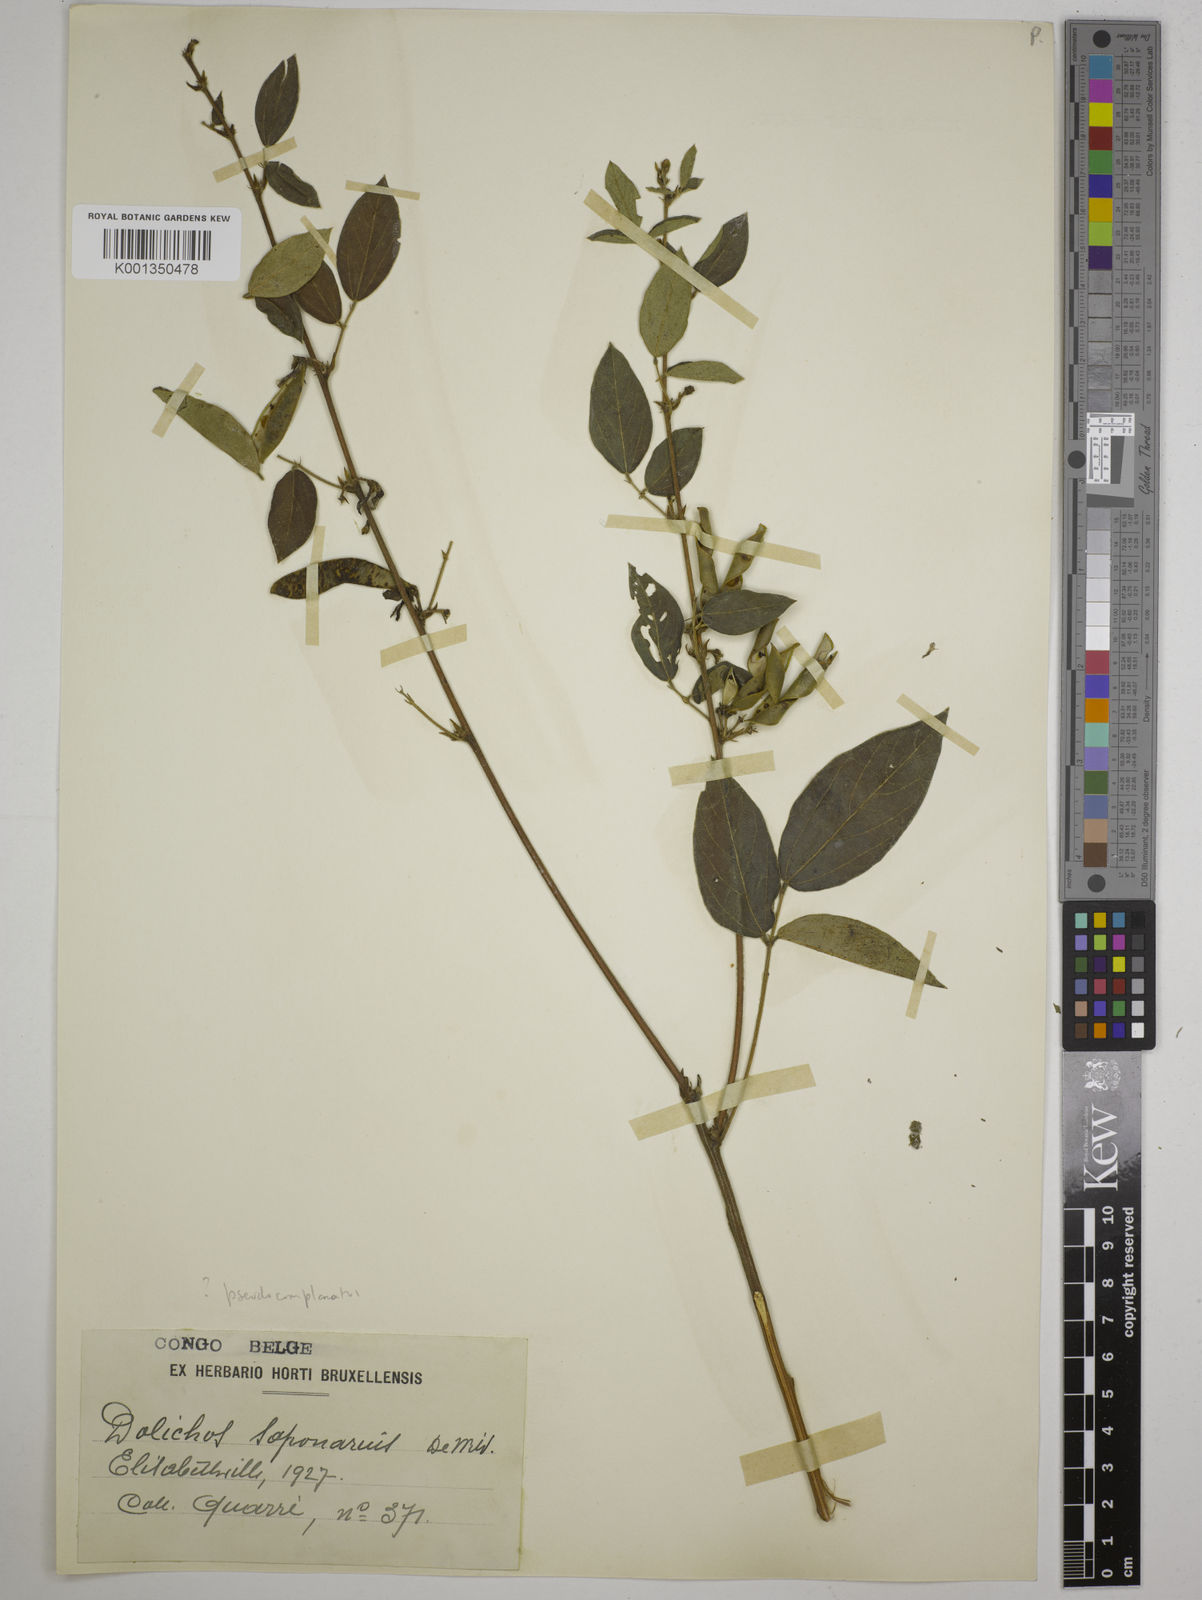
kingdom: Plantae
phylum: Tracheophyta
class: Magnoliopsida
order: Fabales
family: Fabaceae
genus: Dolichos
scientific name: Dolichos pseudocajanus
